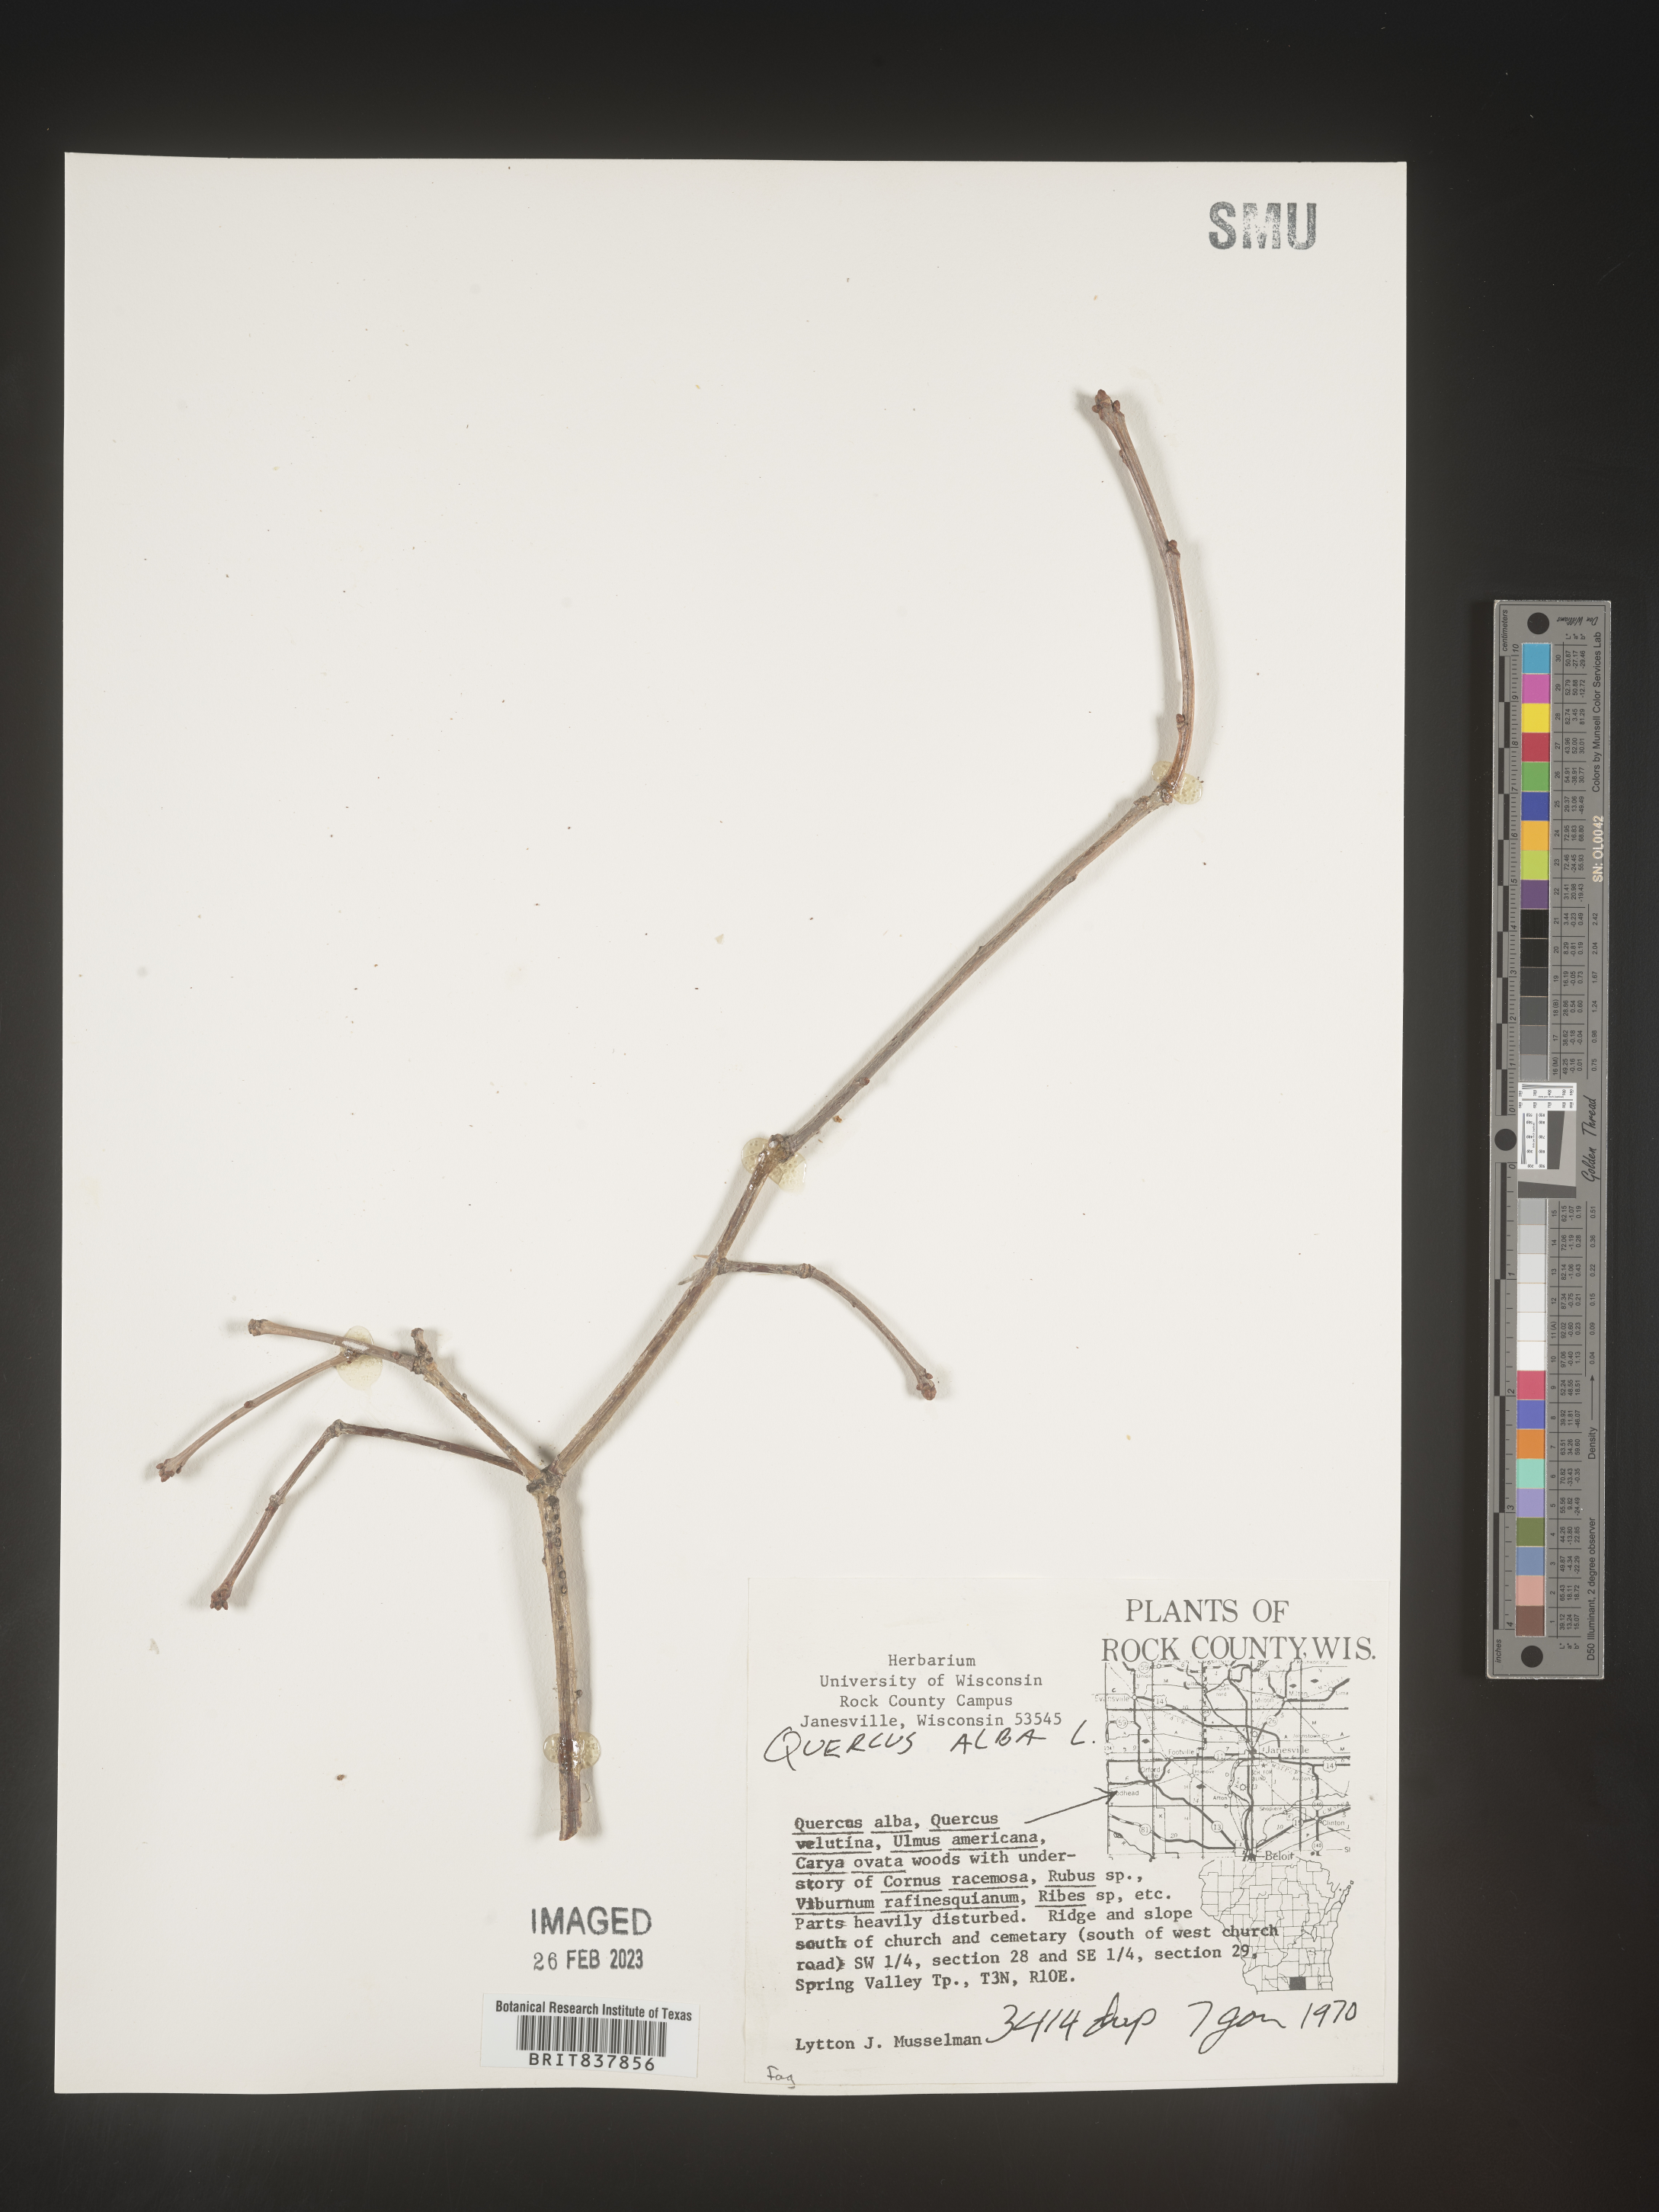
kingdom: Plantae
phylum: Tracheophyta
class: Magnoliopsida
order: Fagales
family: Fagaceae
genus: Quercus
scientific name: Quercus alba
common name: White oak
